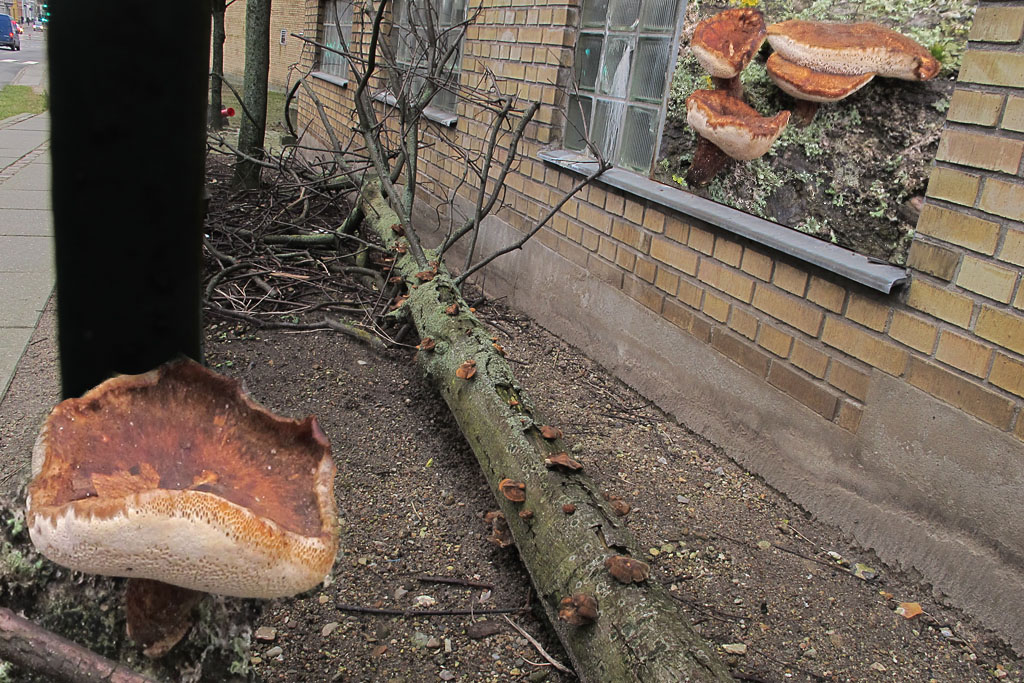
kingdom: Fungi
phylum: Basidiomycota
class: Agaricomycetes
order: Polyporales
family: Polyporaceae
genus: Lentinus
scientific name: Lentinus brumalis
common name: vinter-stilkporesvamp
